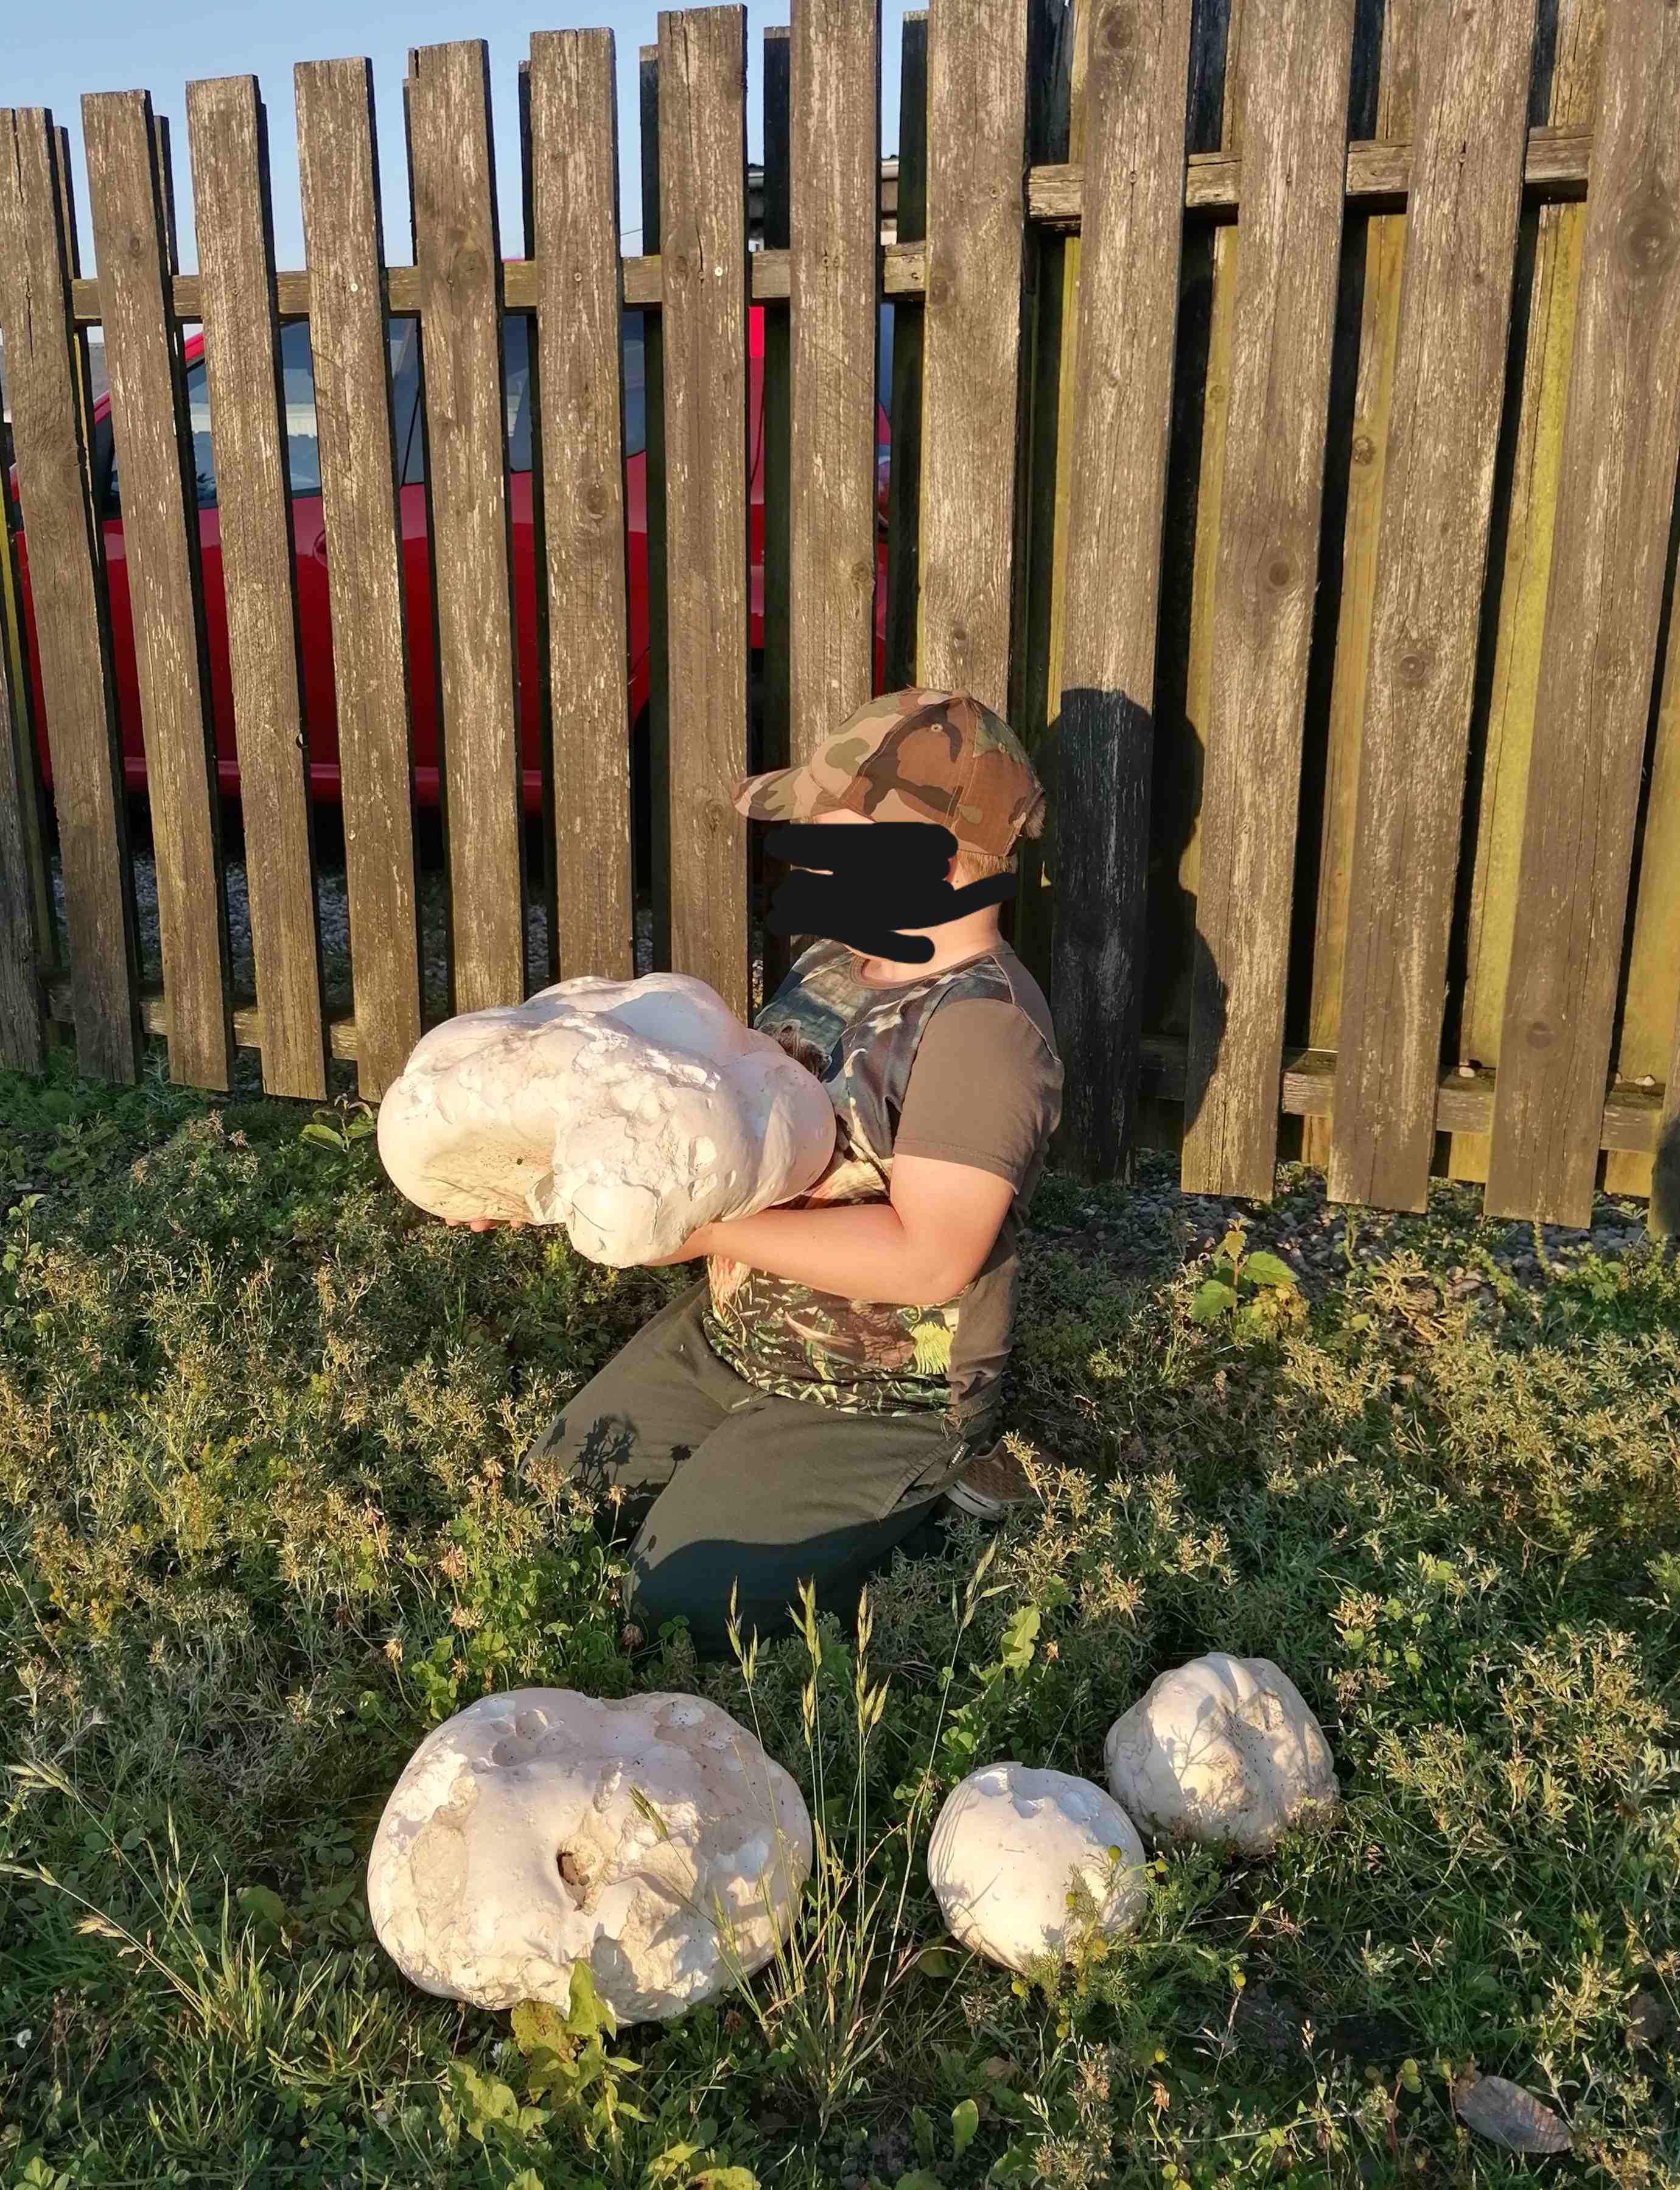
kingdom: Fungi
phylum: Basidiomycota
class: Agaricomycetes
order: Agaricales
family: Lycoperdaceae
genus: Calvatia
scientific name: Calvatia gigantea
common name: kæmpestøvbold
